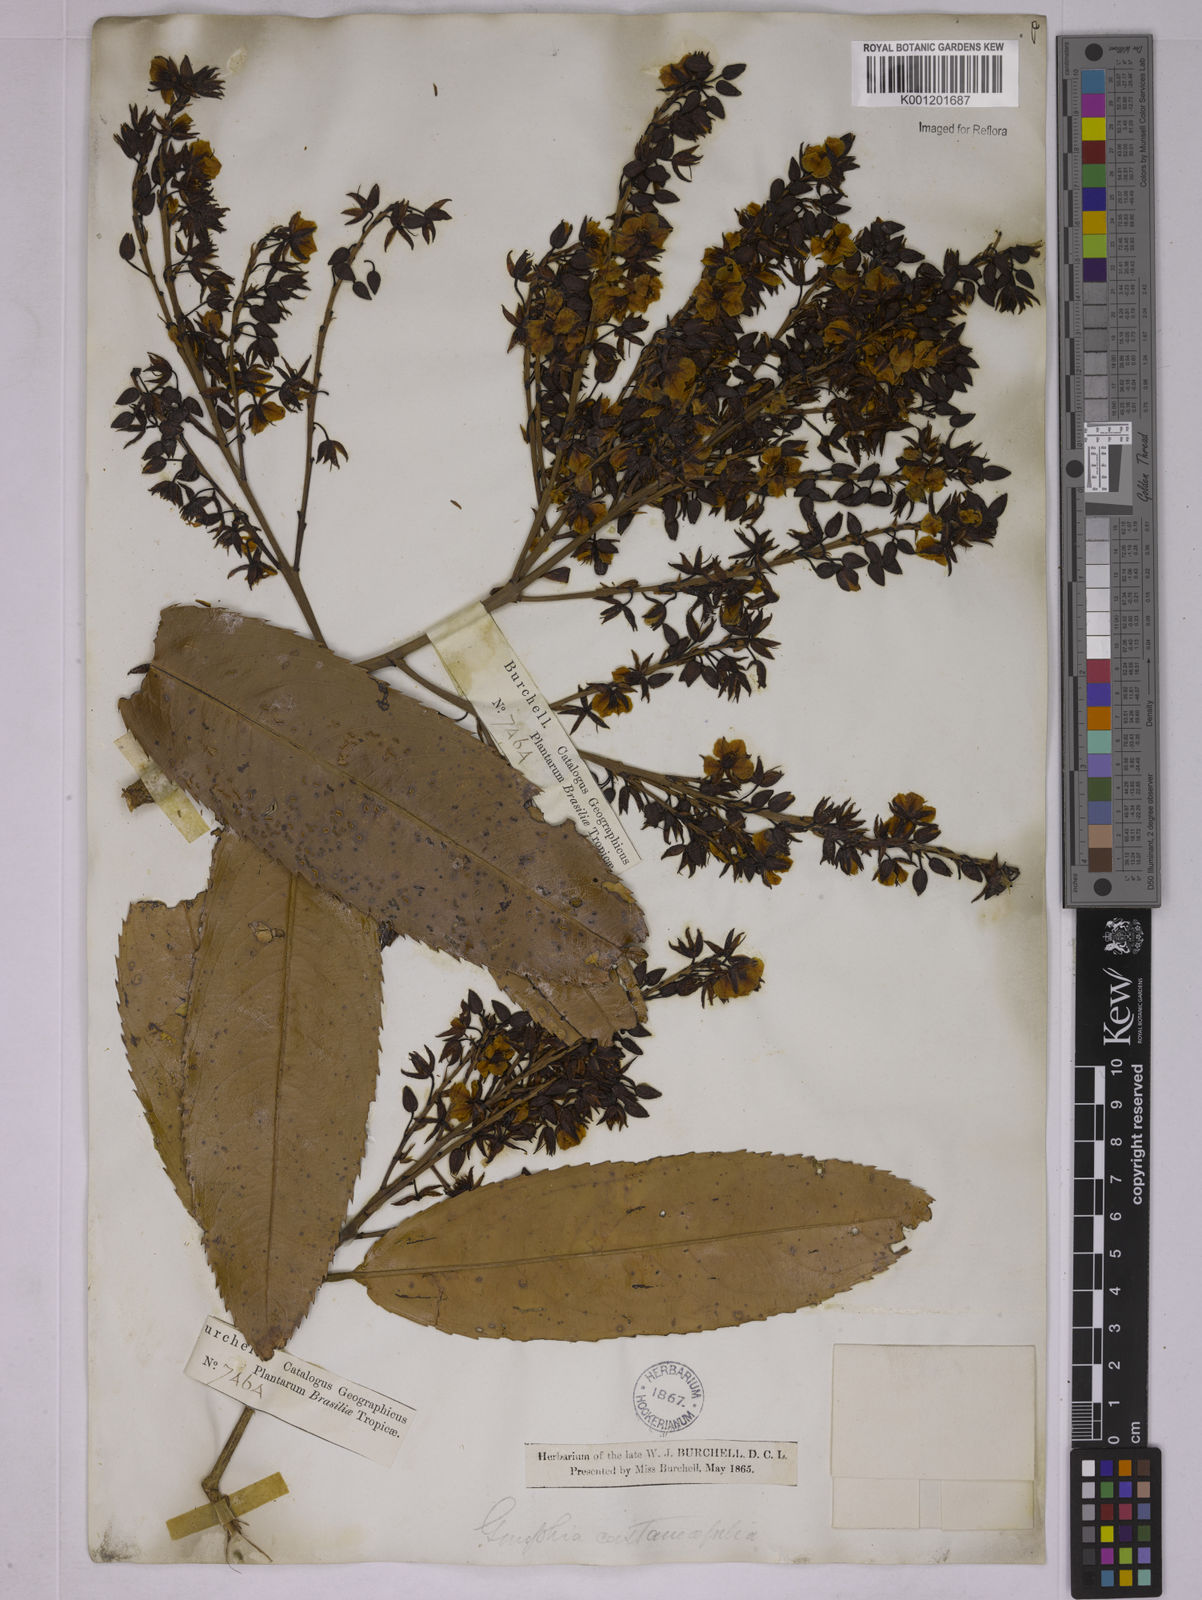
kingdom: Plantae
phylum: Tracheophyta
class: Magnoliopsida
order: Malpighiales
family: Ochnaceae
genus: Ouratea
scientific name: Ouratea castaneifolia
